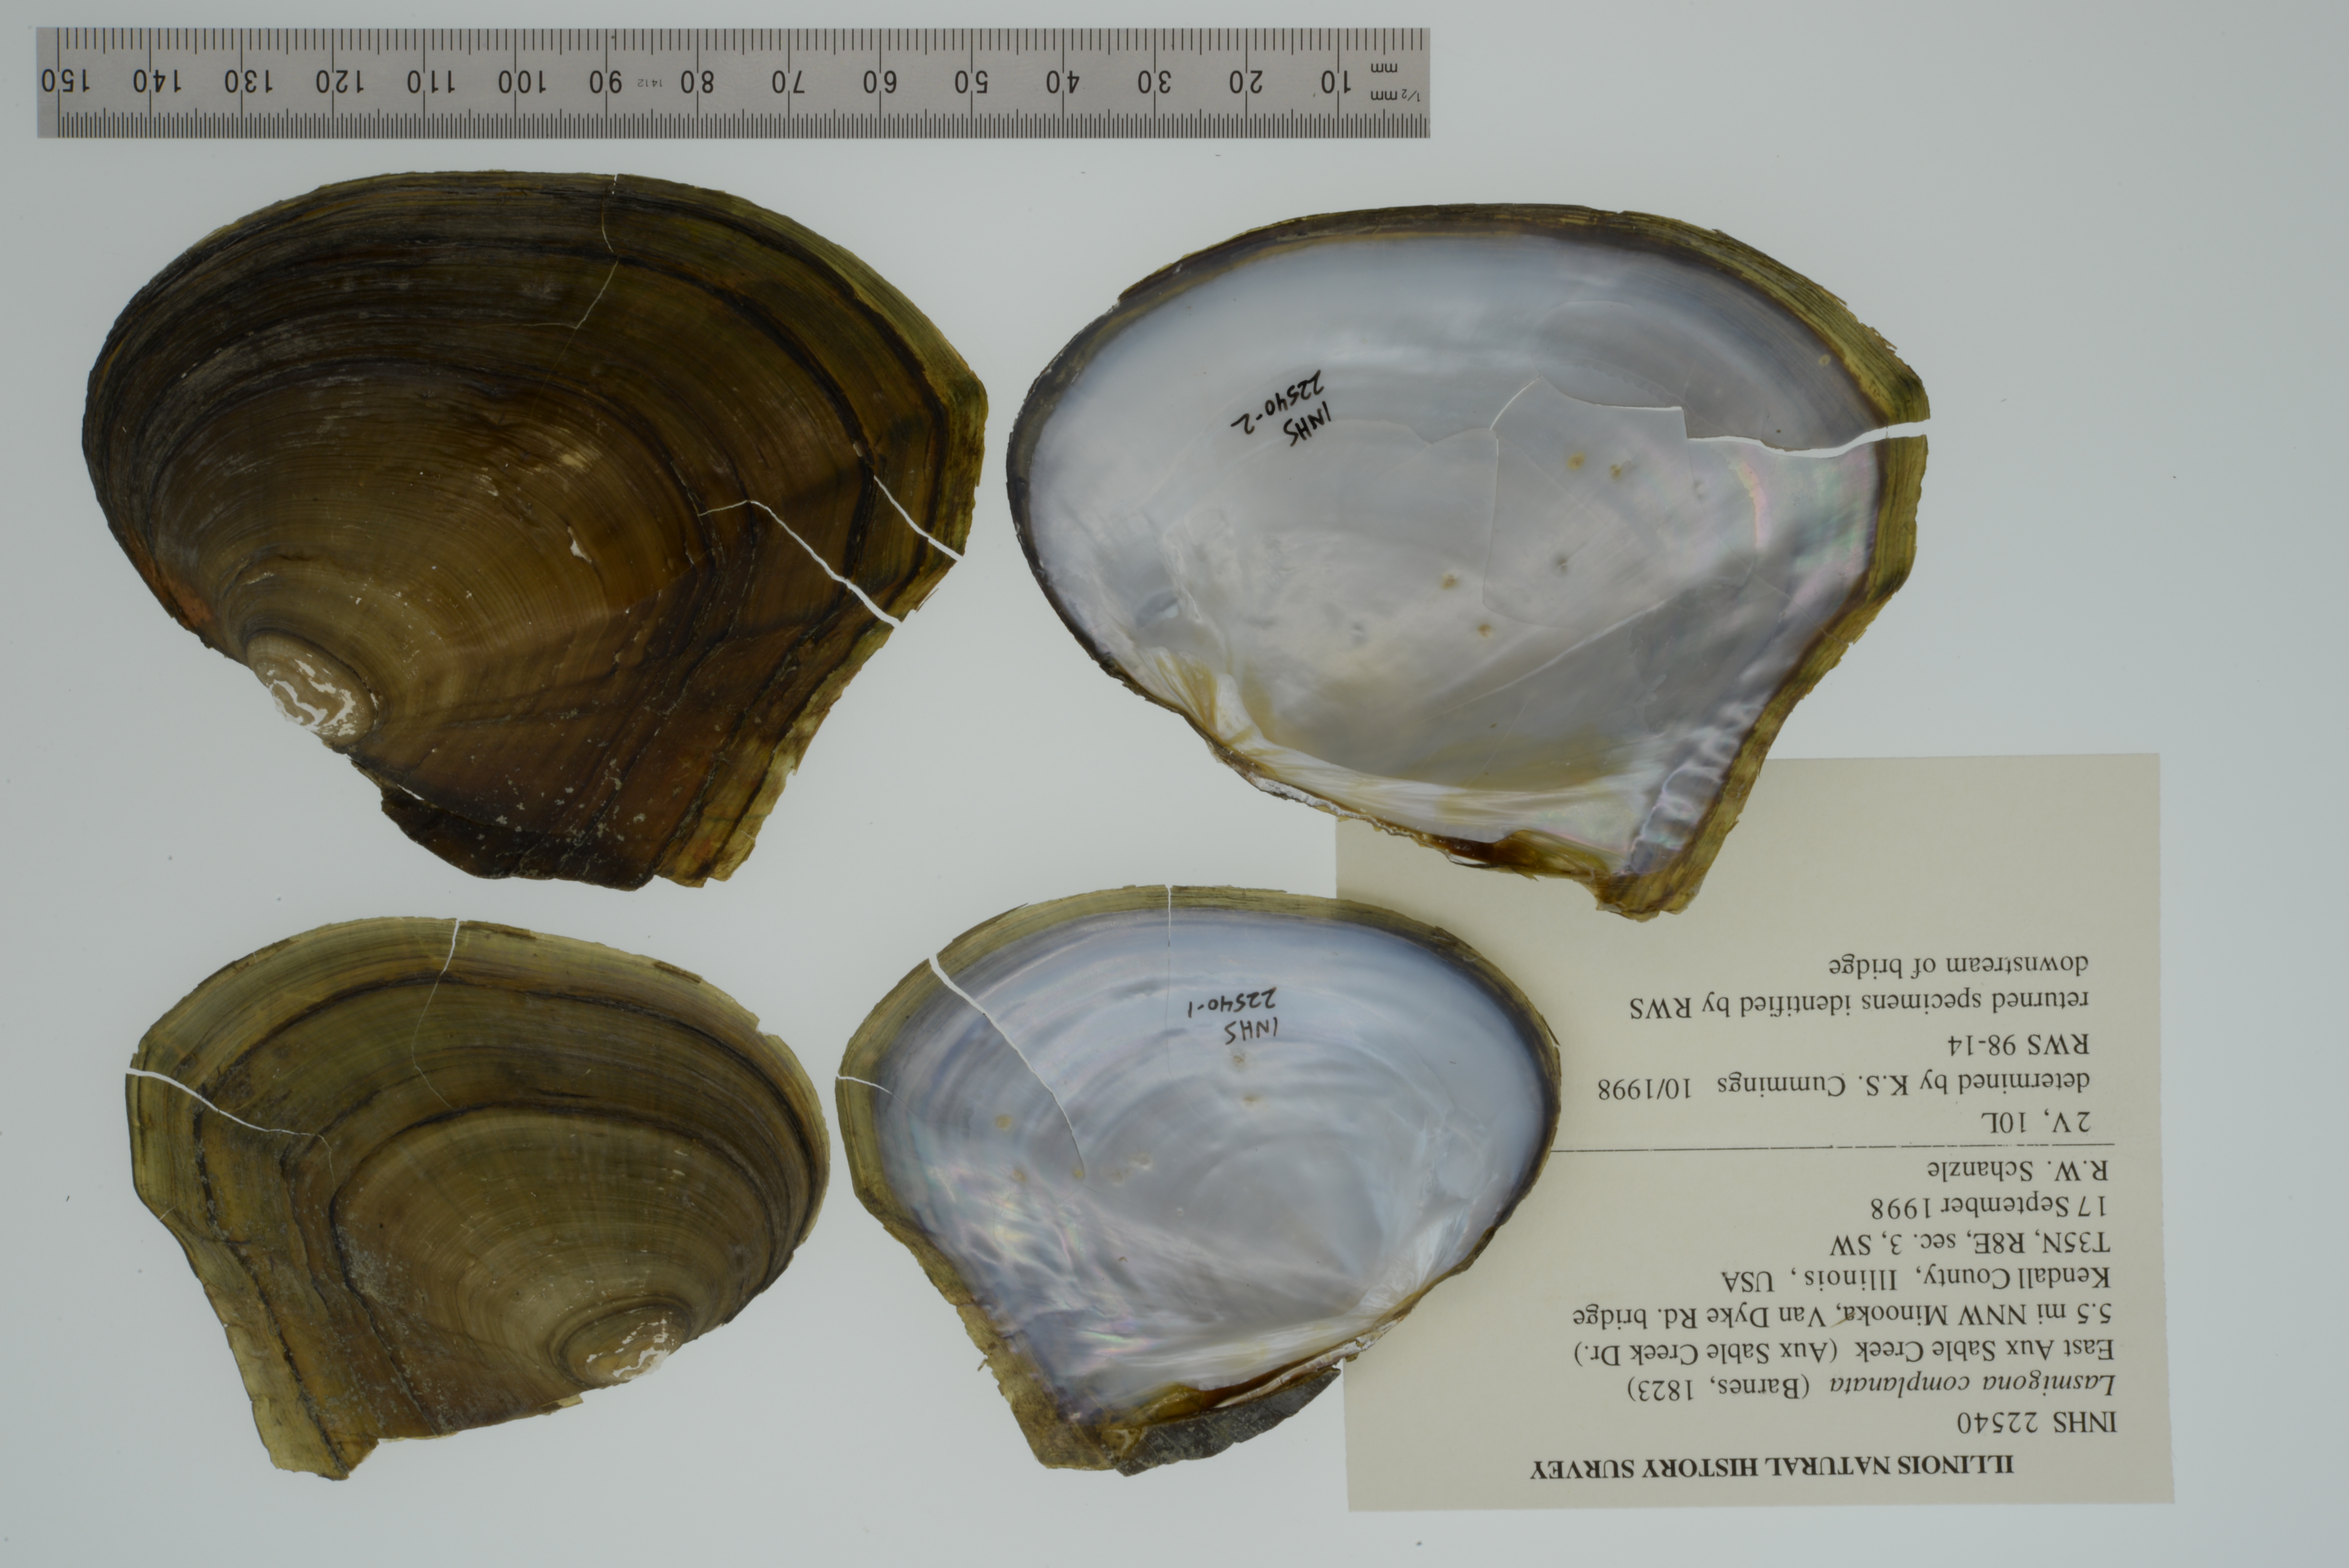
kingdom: Animalia
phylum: Mollusca
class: Bivalvia
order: Unionida
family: Unionidae
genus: Lasmigona
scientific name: Lasmigona complanata
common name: White heelsplitter
